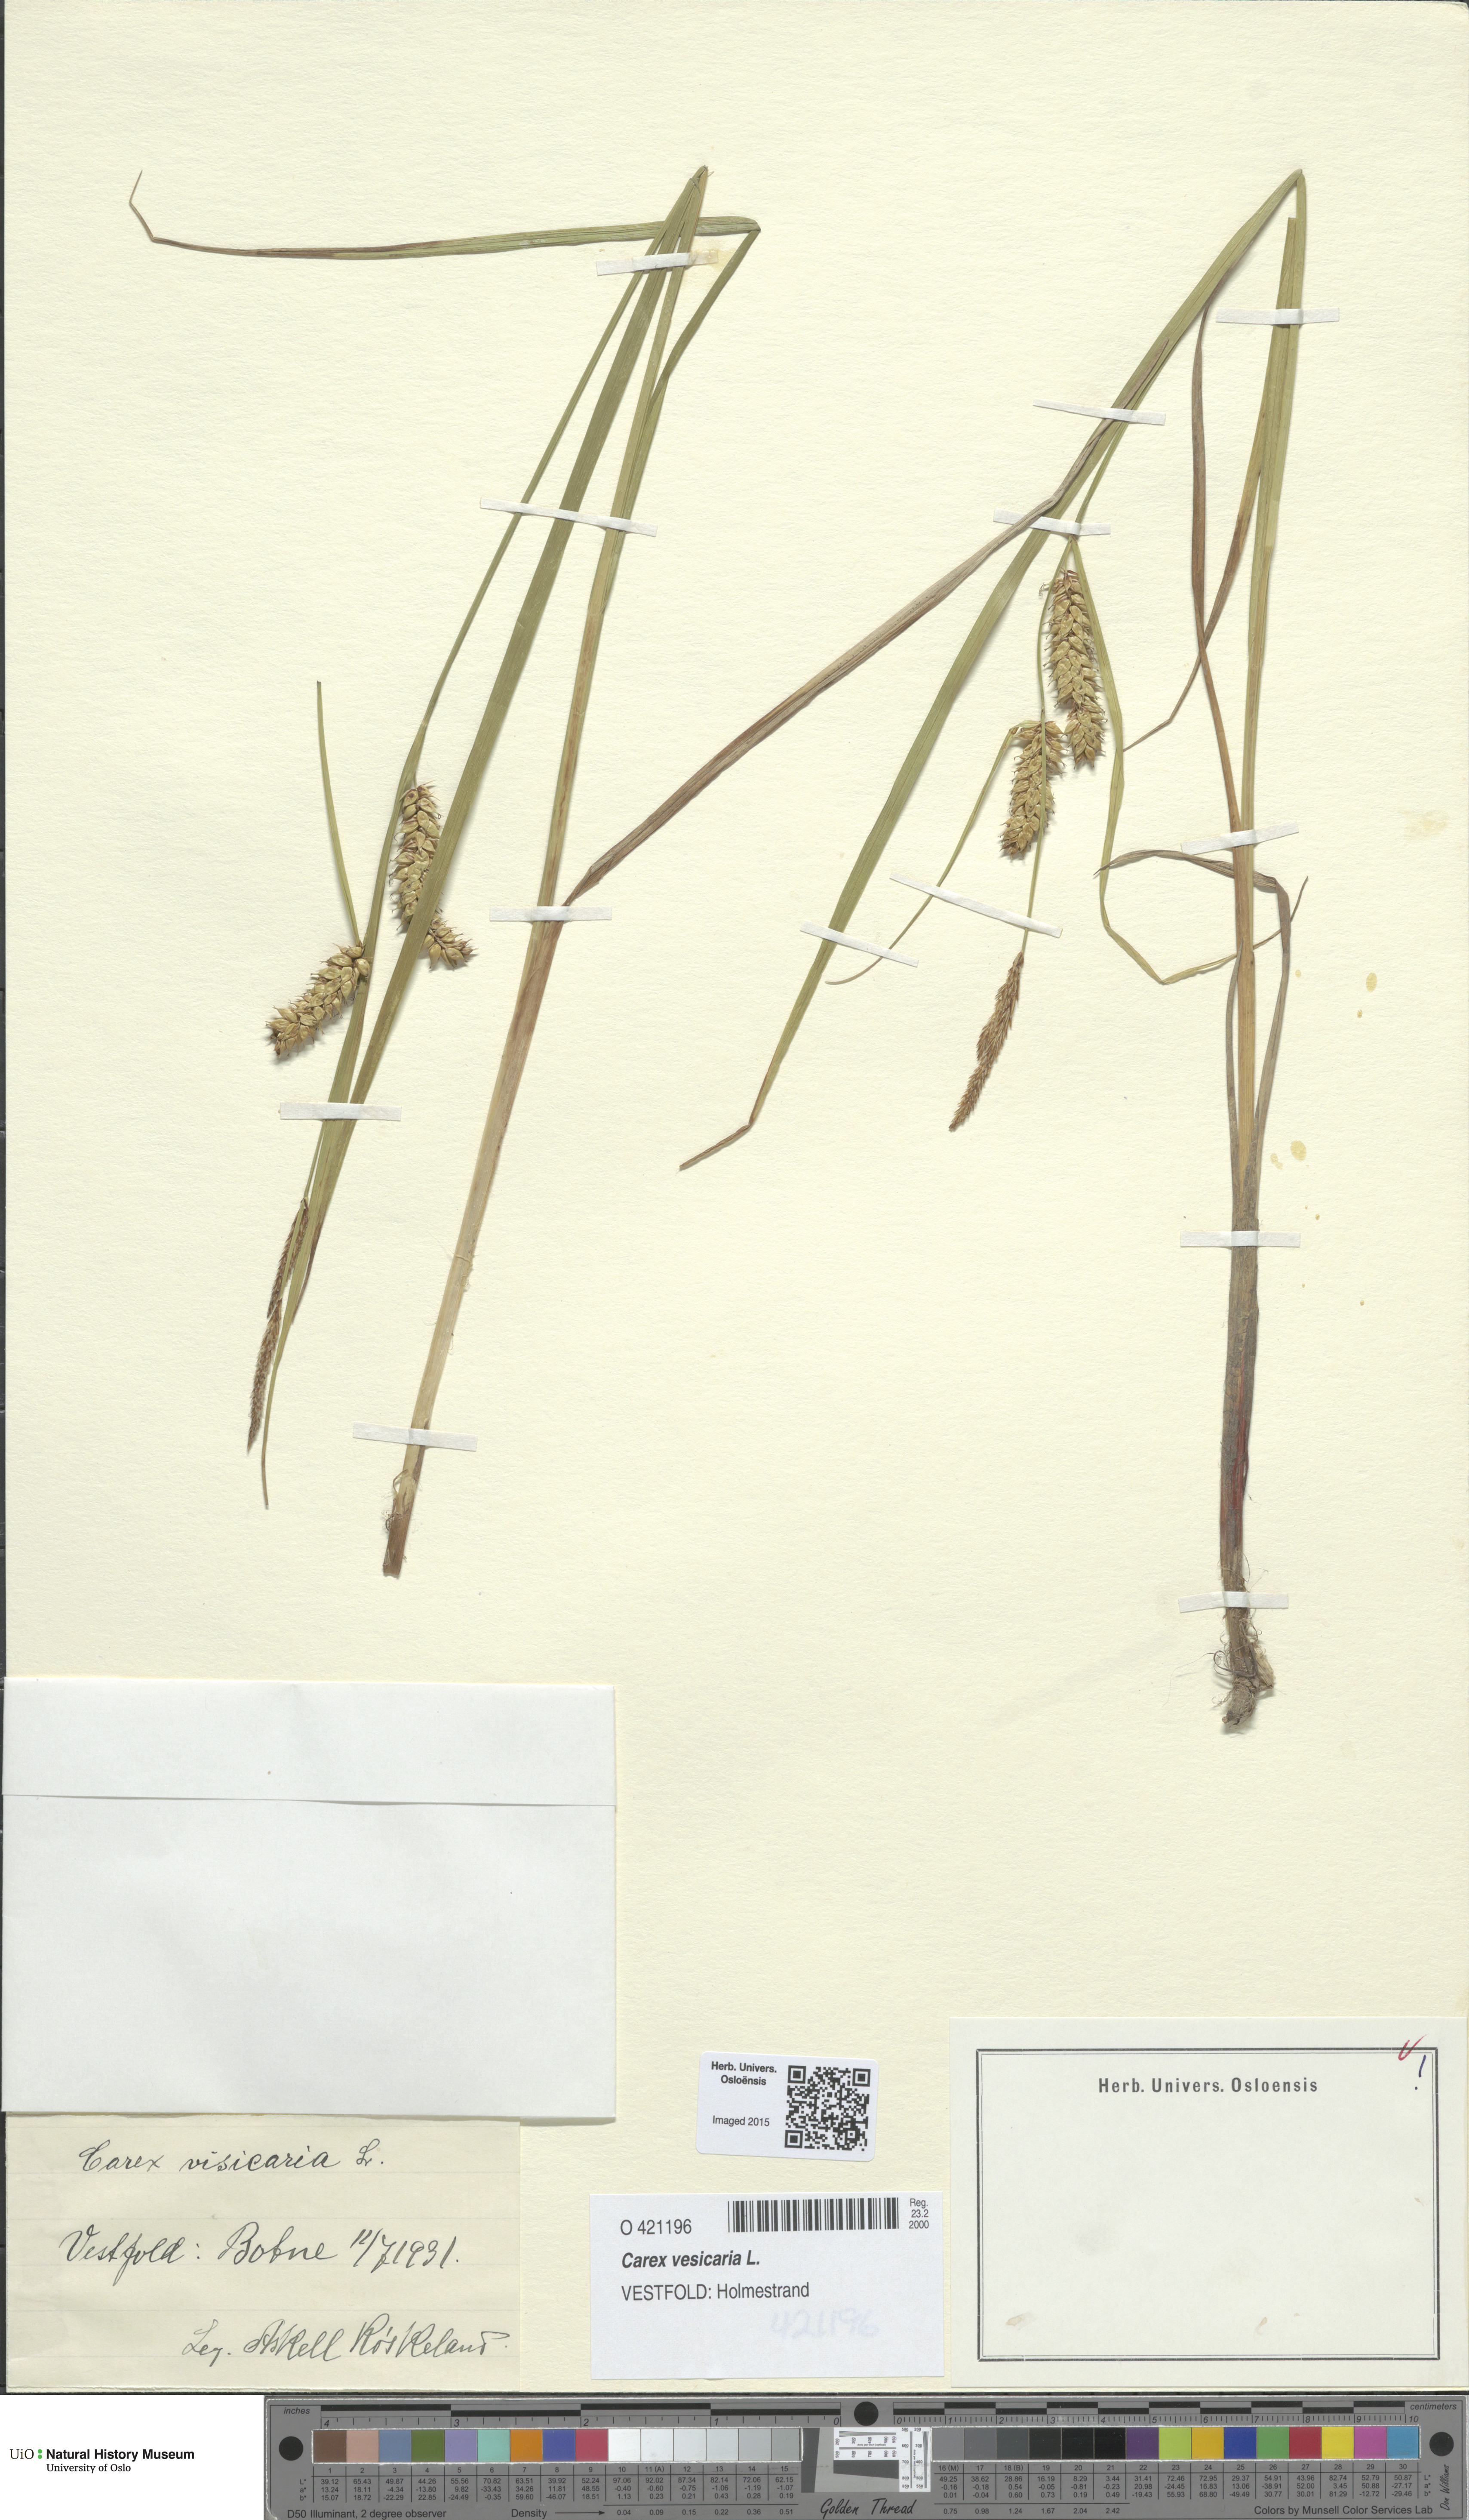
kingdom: Plantae
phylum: Tracheophyta
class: Liliopsida
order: Poales
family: Cyperaceae
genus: Carex
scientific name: Carex vesicaria
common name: Bladder-sedge
